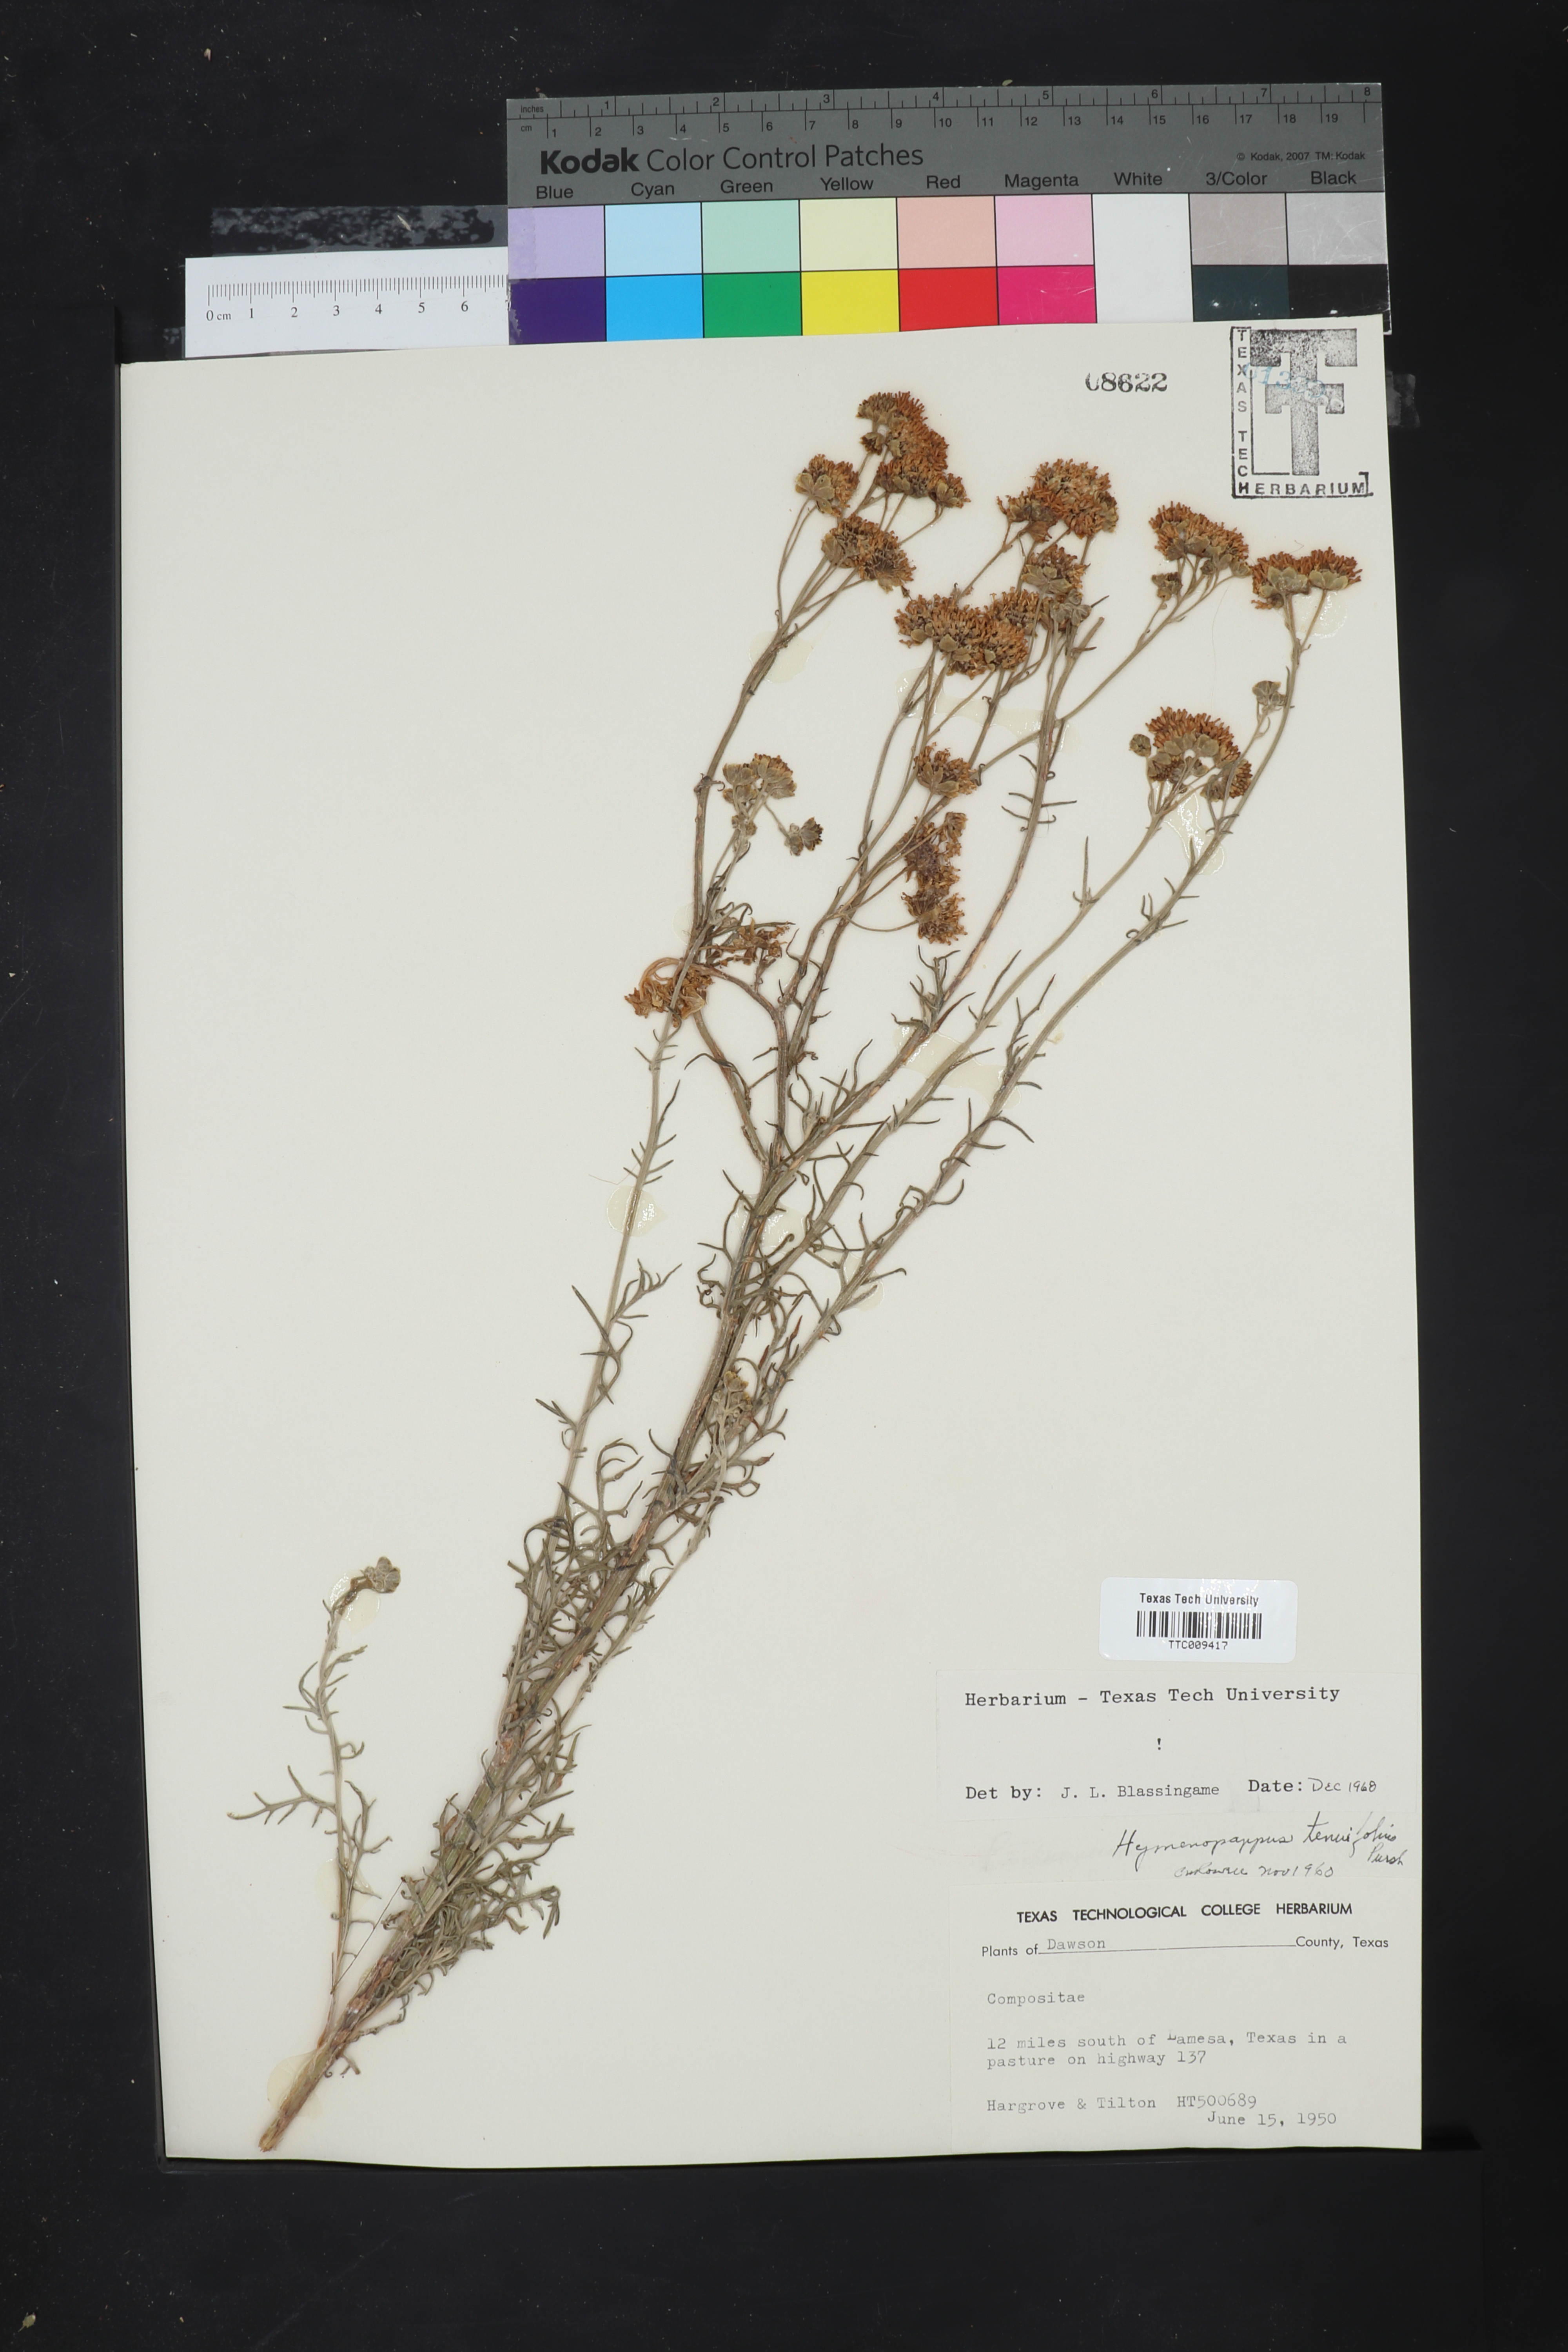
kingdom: Plantae
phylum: Tracheophyta
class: Magnoliopsida
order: Asterales
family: Asteraceae
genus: Hymenopappus
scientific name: Hymenopappus tenuifolius
